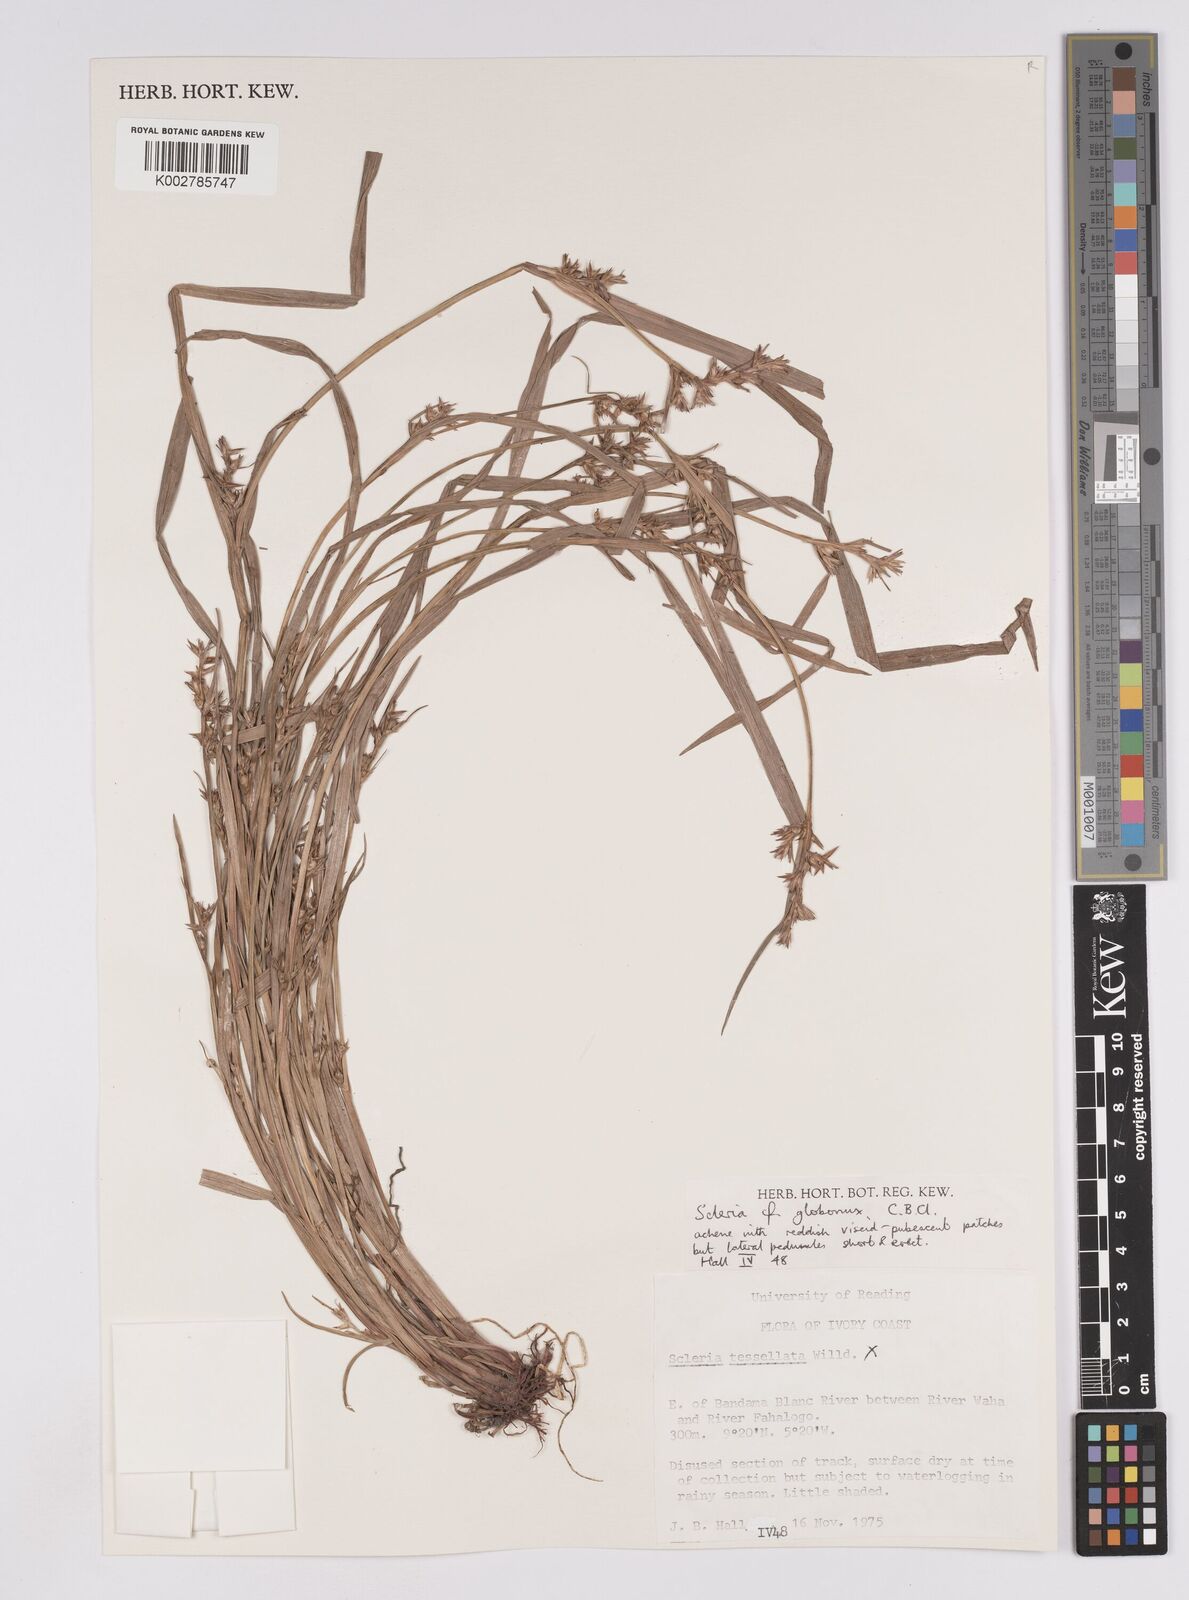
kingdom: Plantae
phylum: Tracheophyta
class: Liliopsida
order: Poales
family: Cyperaceae
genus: Scleria
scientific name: Scleria globonux
